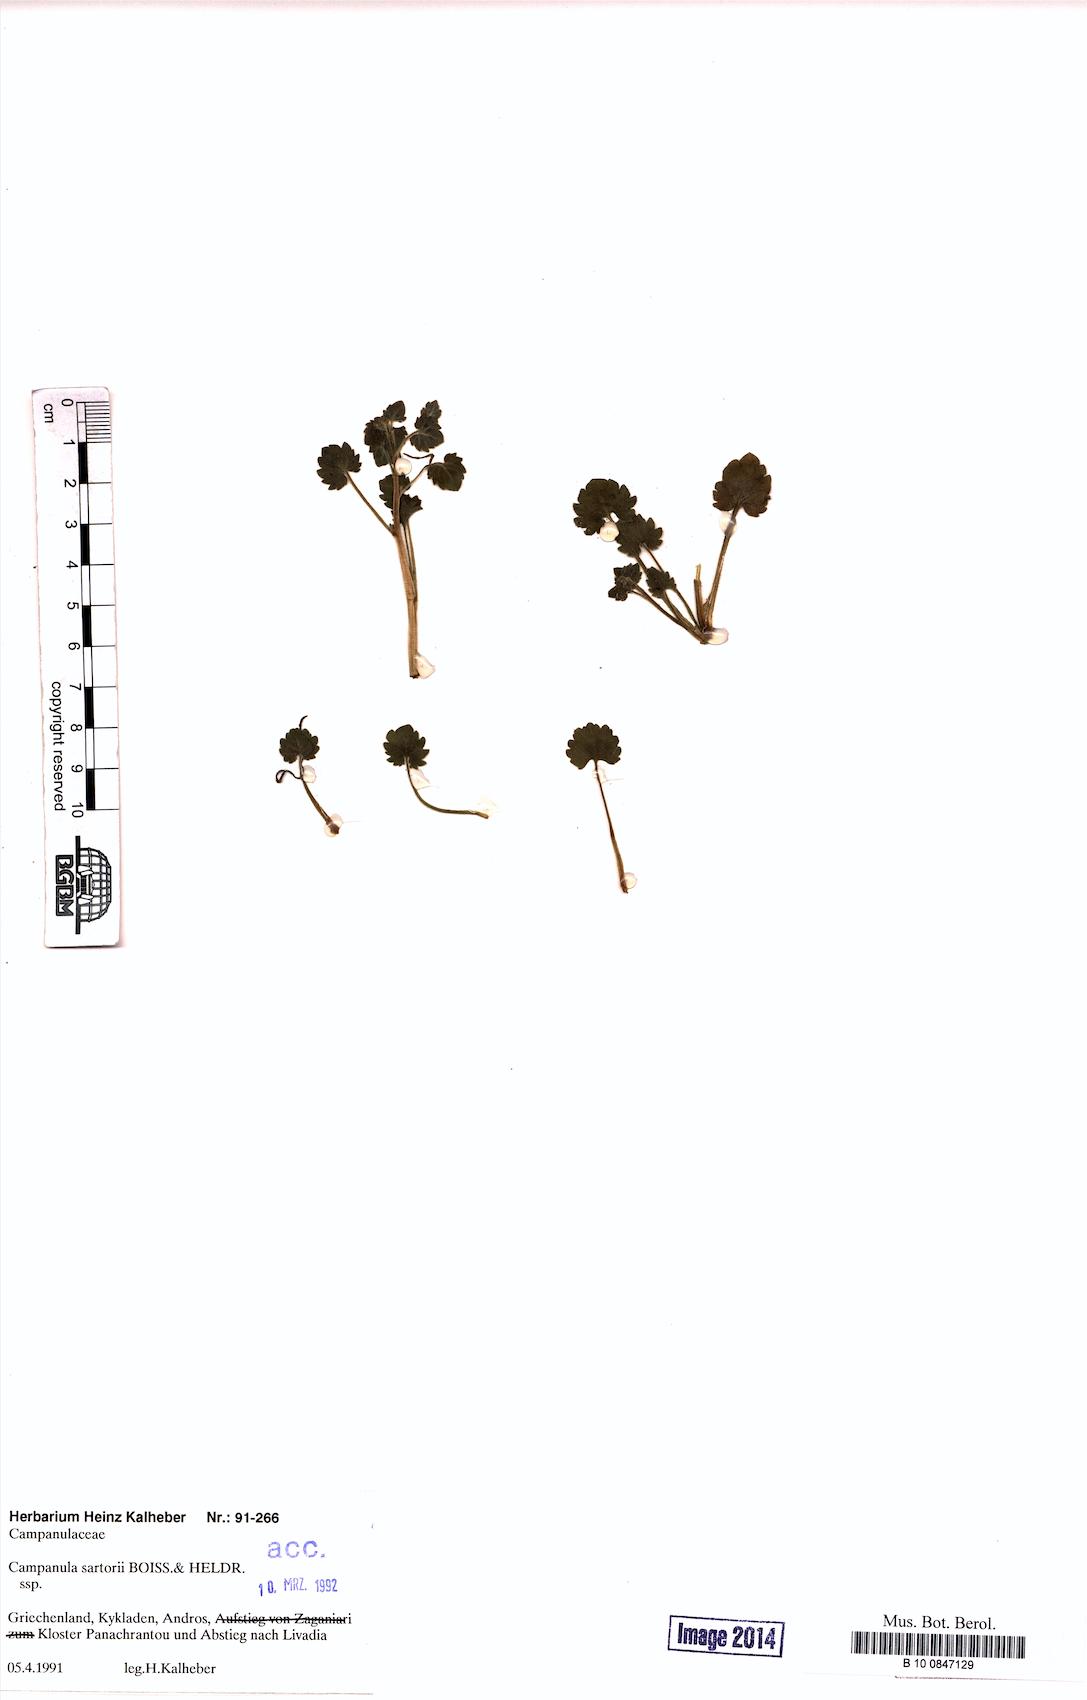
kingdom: Plantae
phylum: Tracheophyta
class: Magnoliopsida
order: Asterales
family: Campanulaceae
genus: Campanula
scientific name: Campanula sartorii
